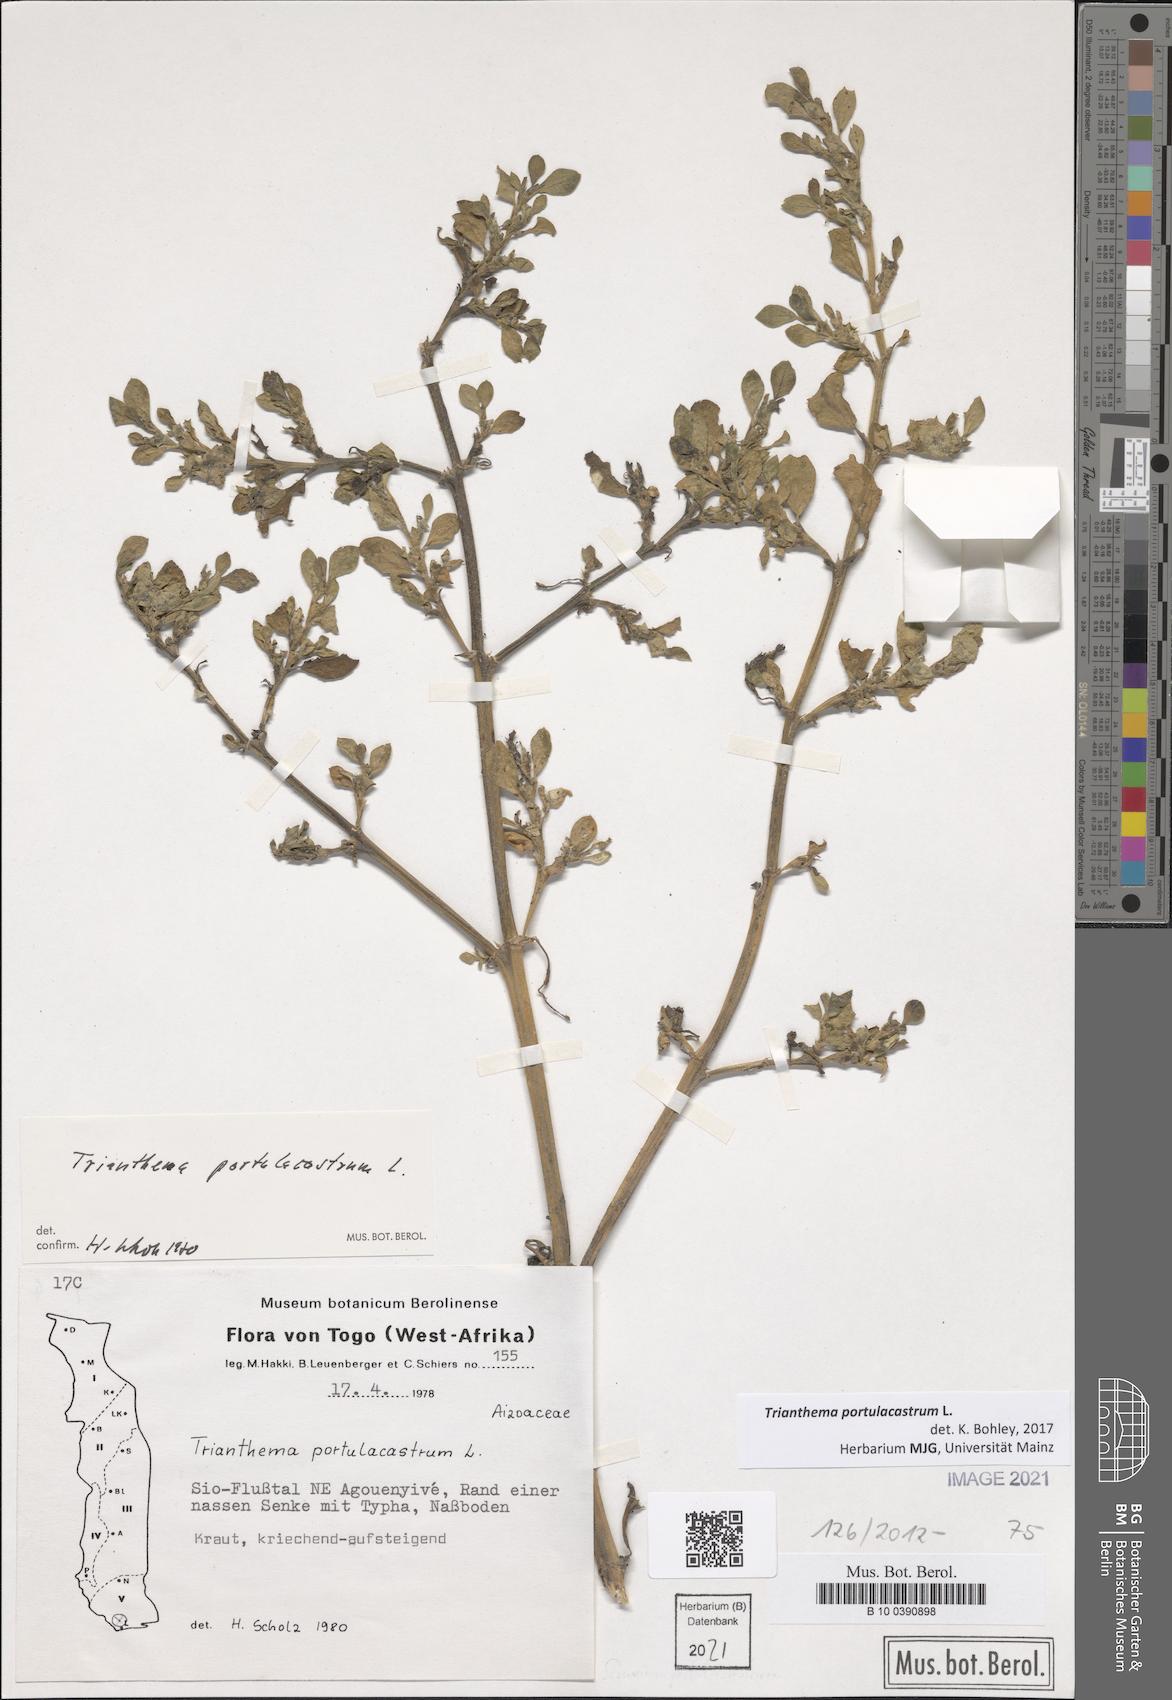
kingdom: Plantae
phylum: Tracheophyta
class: Magnoliopsida
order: Caryophyllales
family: Aizoaceae
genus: Trianthema
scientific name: Trianthema portulacastrum
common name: Desert horsepurslane
